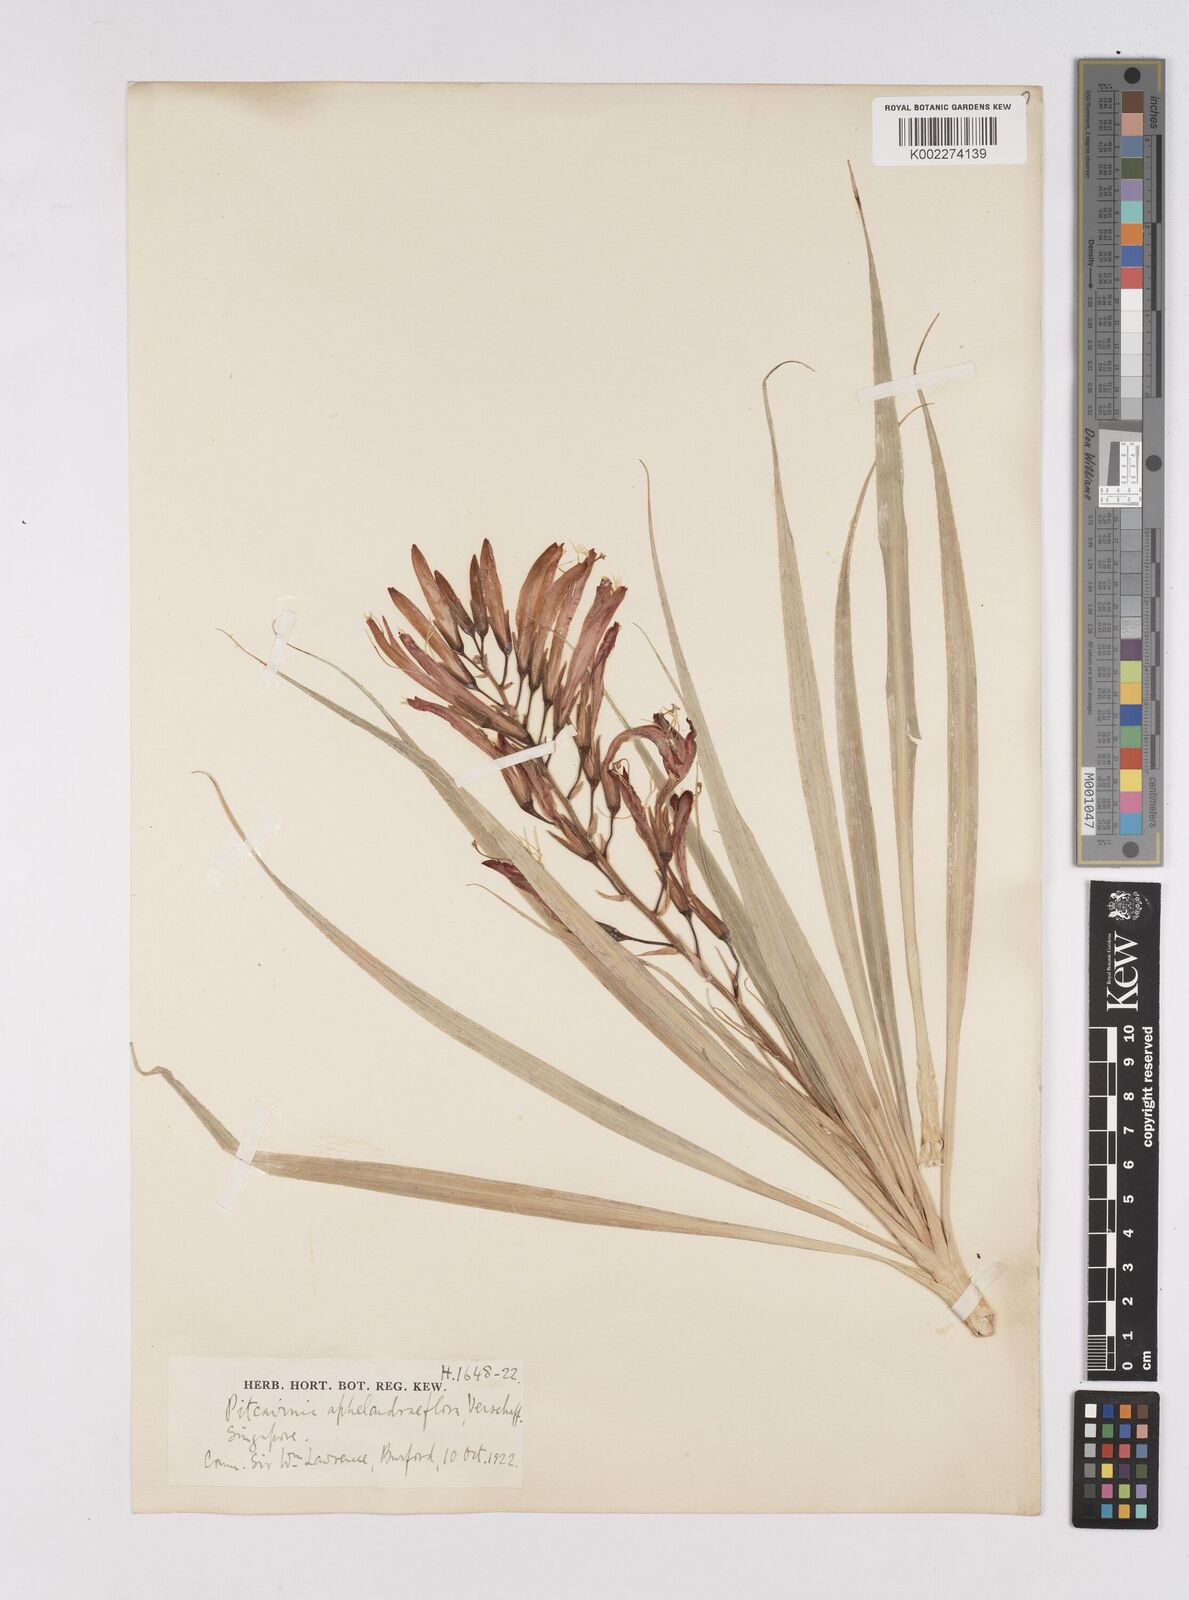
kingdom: Plantae
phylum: Tracheophyta
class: Liliopsida
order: Poales
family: Bromeliaceae
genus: Pitcairnia
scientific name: Pitcairnia aphelandriflora
